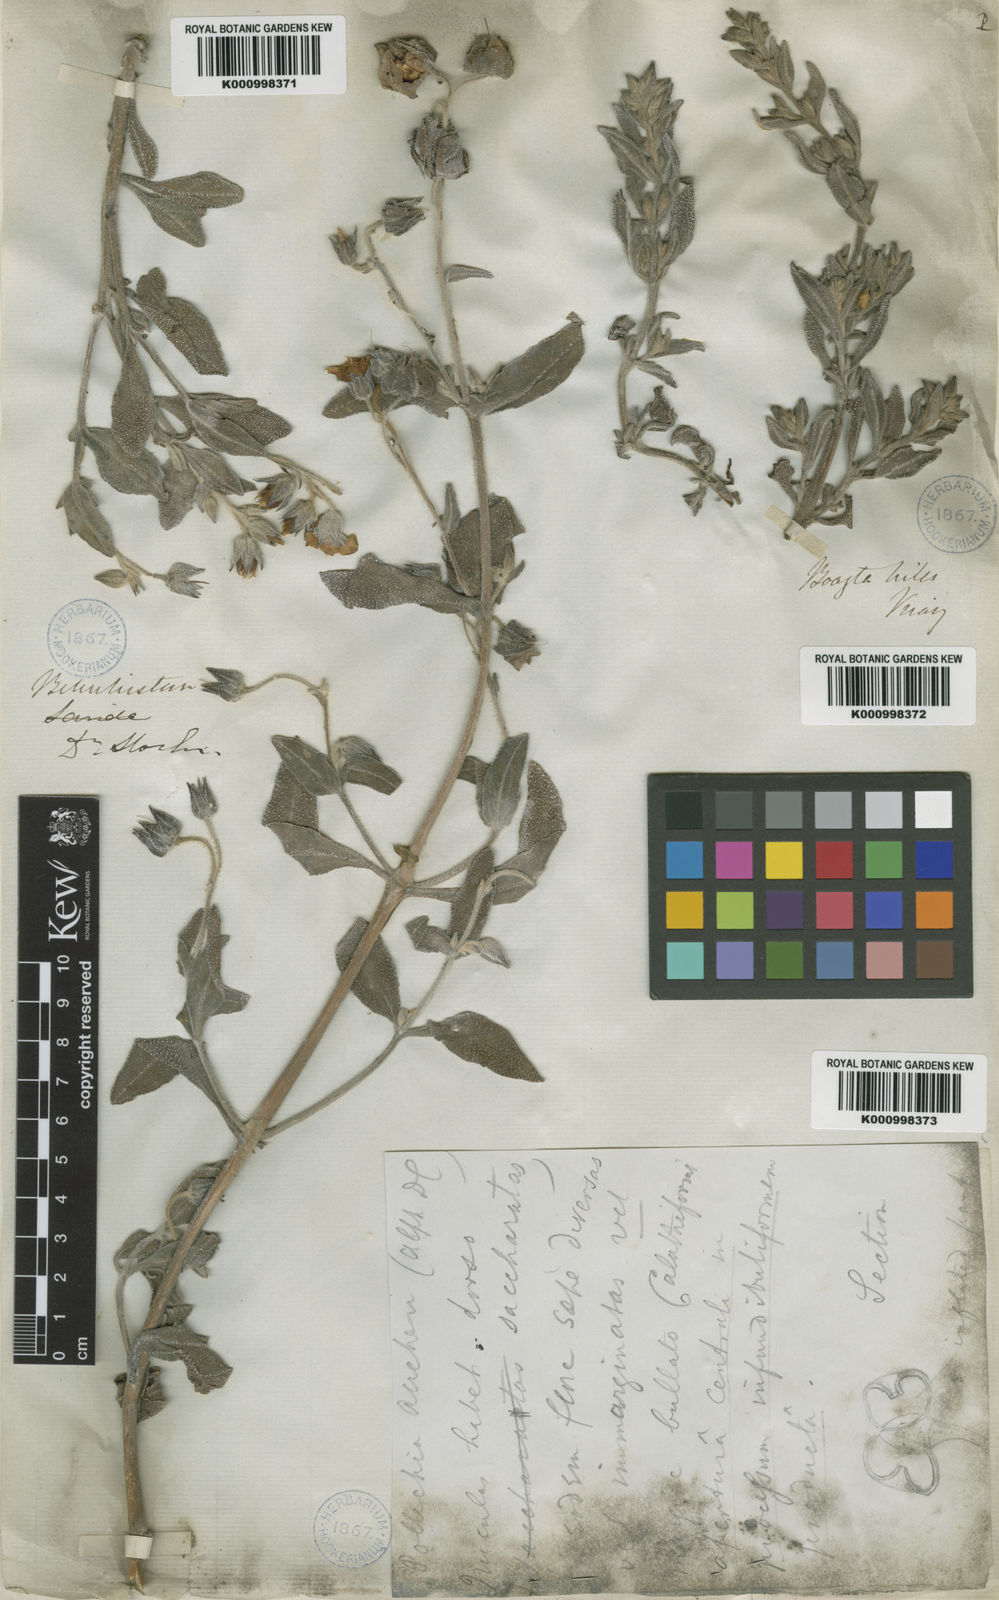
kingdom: Plantae
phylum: Tracheophyta
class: Magnoliopsida
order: Boraginales
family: Boraginaceae
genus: Trichodesma
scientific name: Trichodesma stocksii
